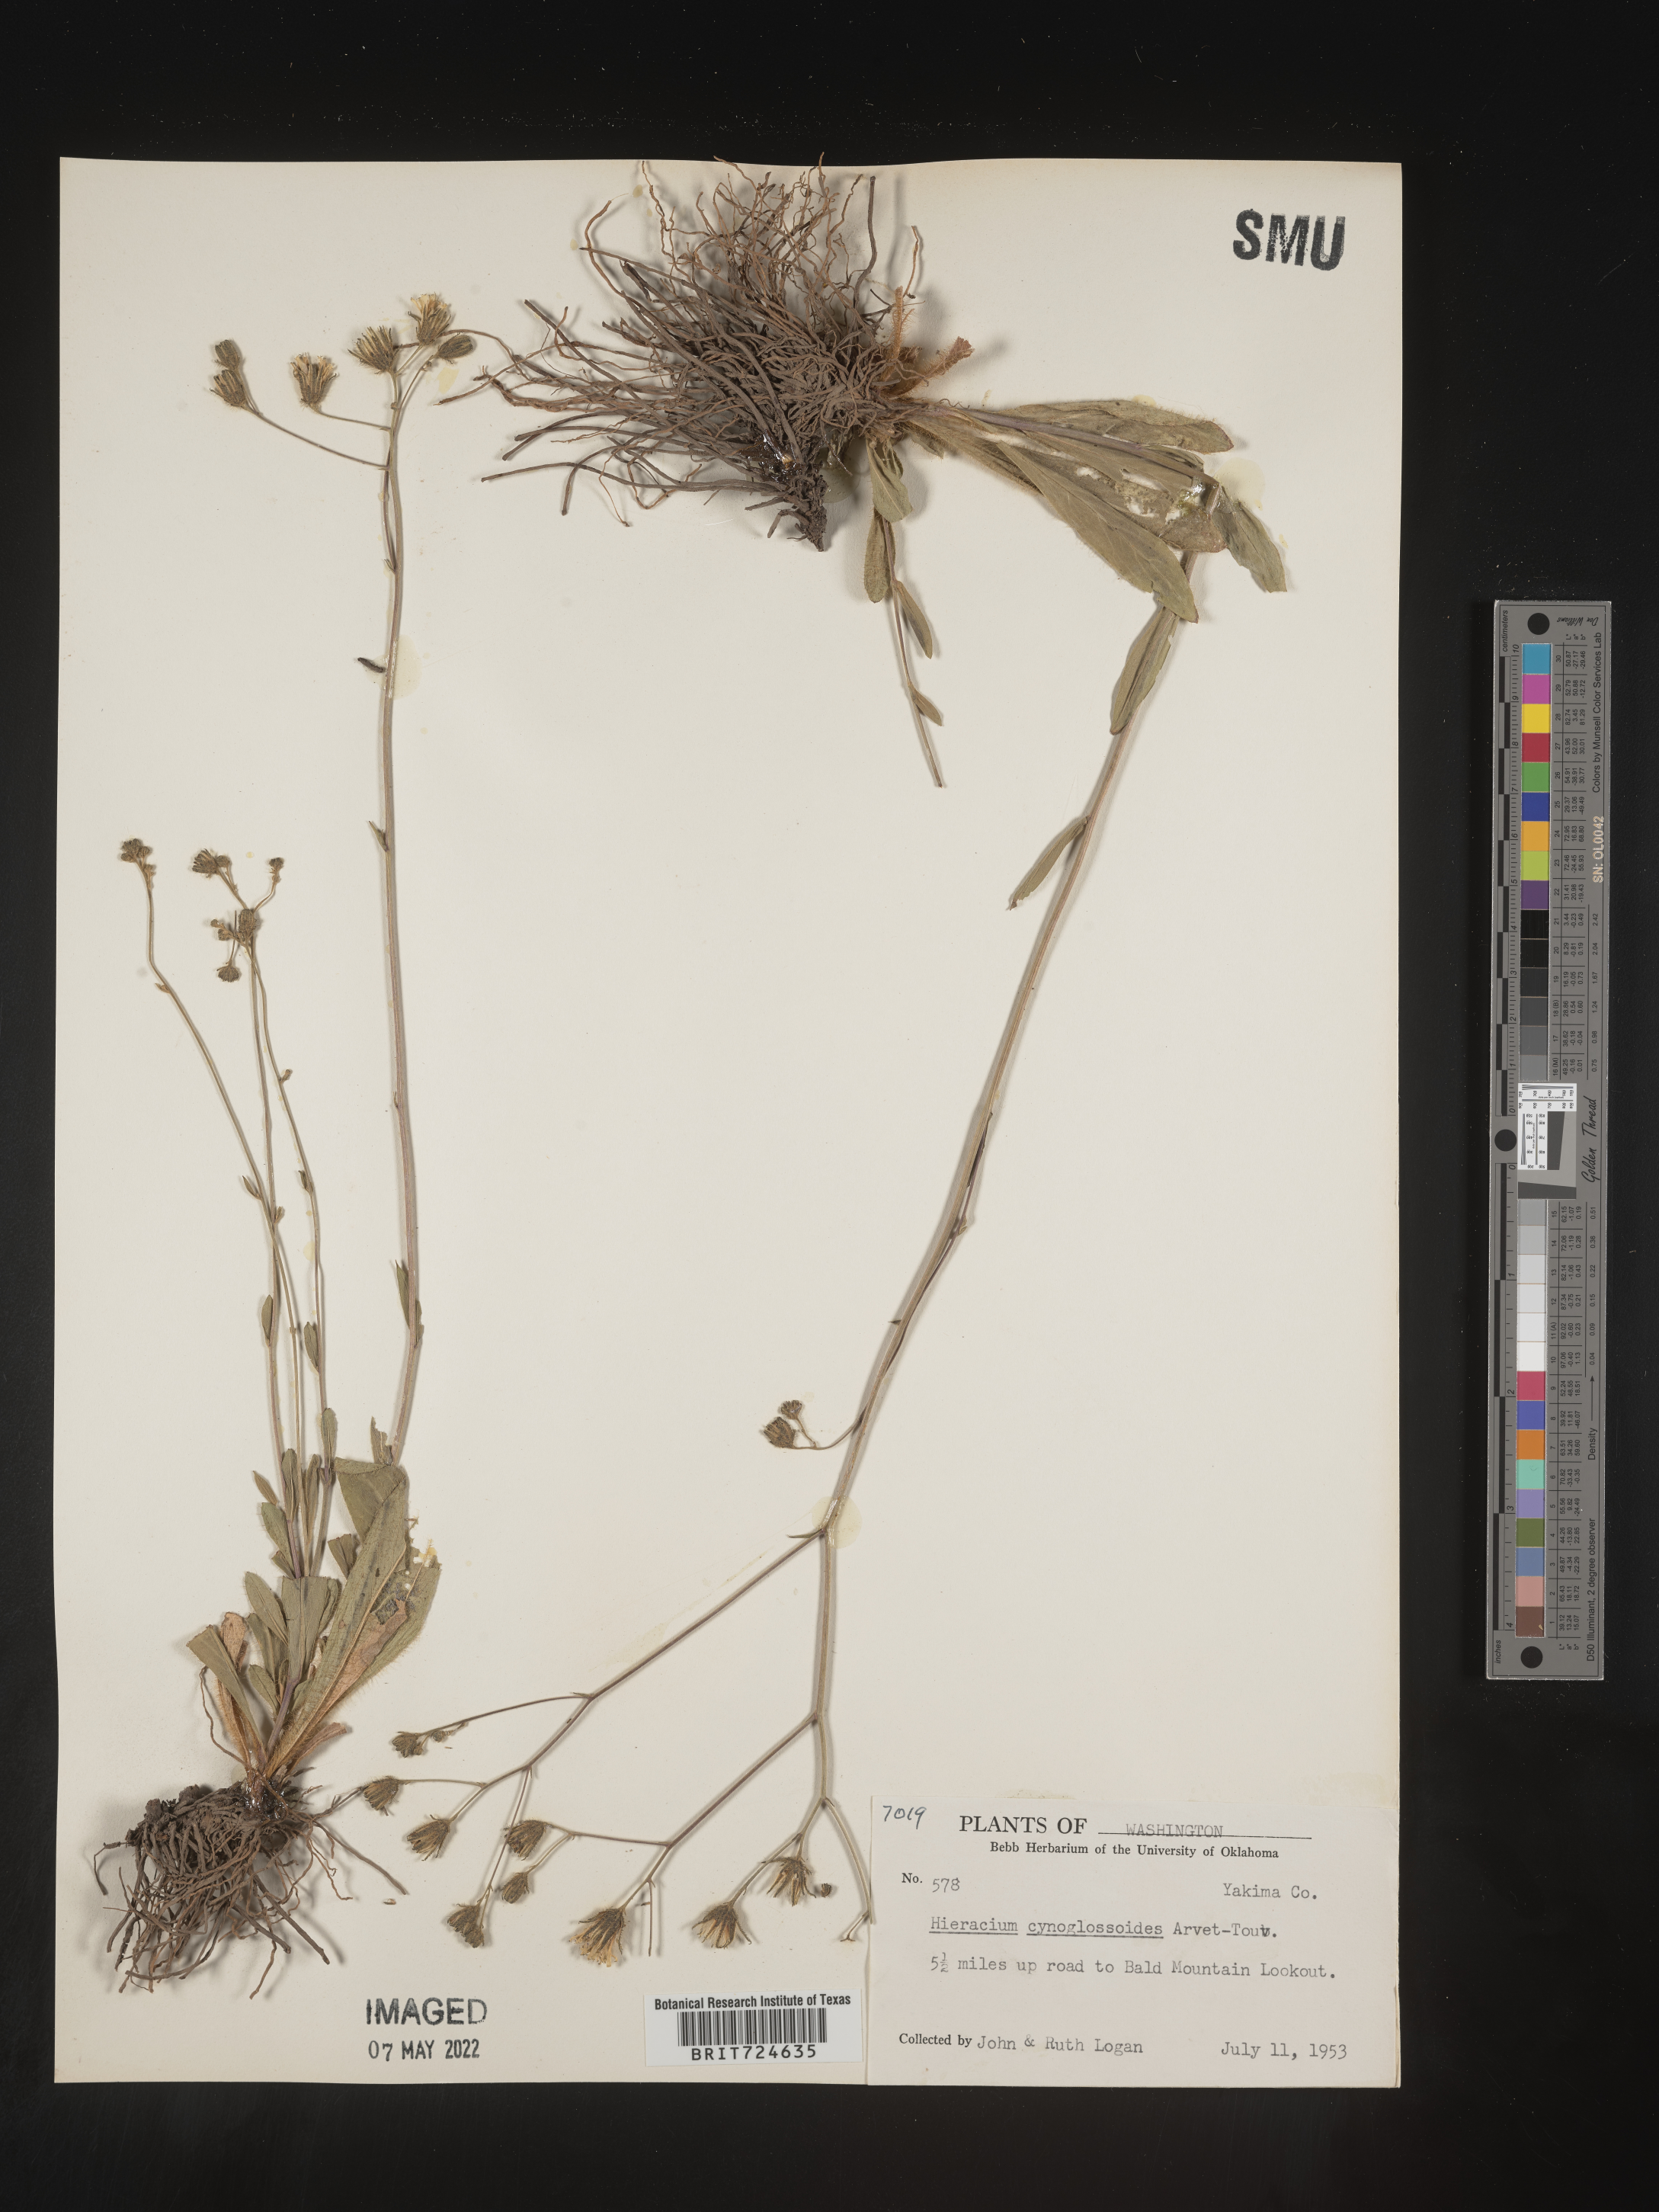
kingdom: Plantae
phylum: Tracheophyta
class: Magnoliopsida
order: Asterales
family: Asteraceae
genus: Hieracium
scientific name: Hieracium scouleri
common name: Hound's-tongue hawkweed
